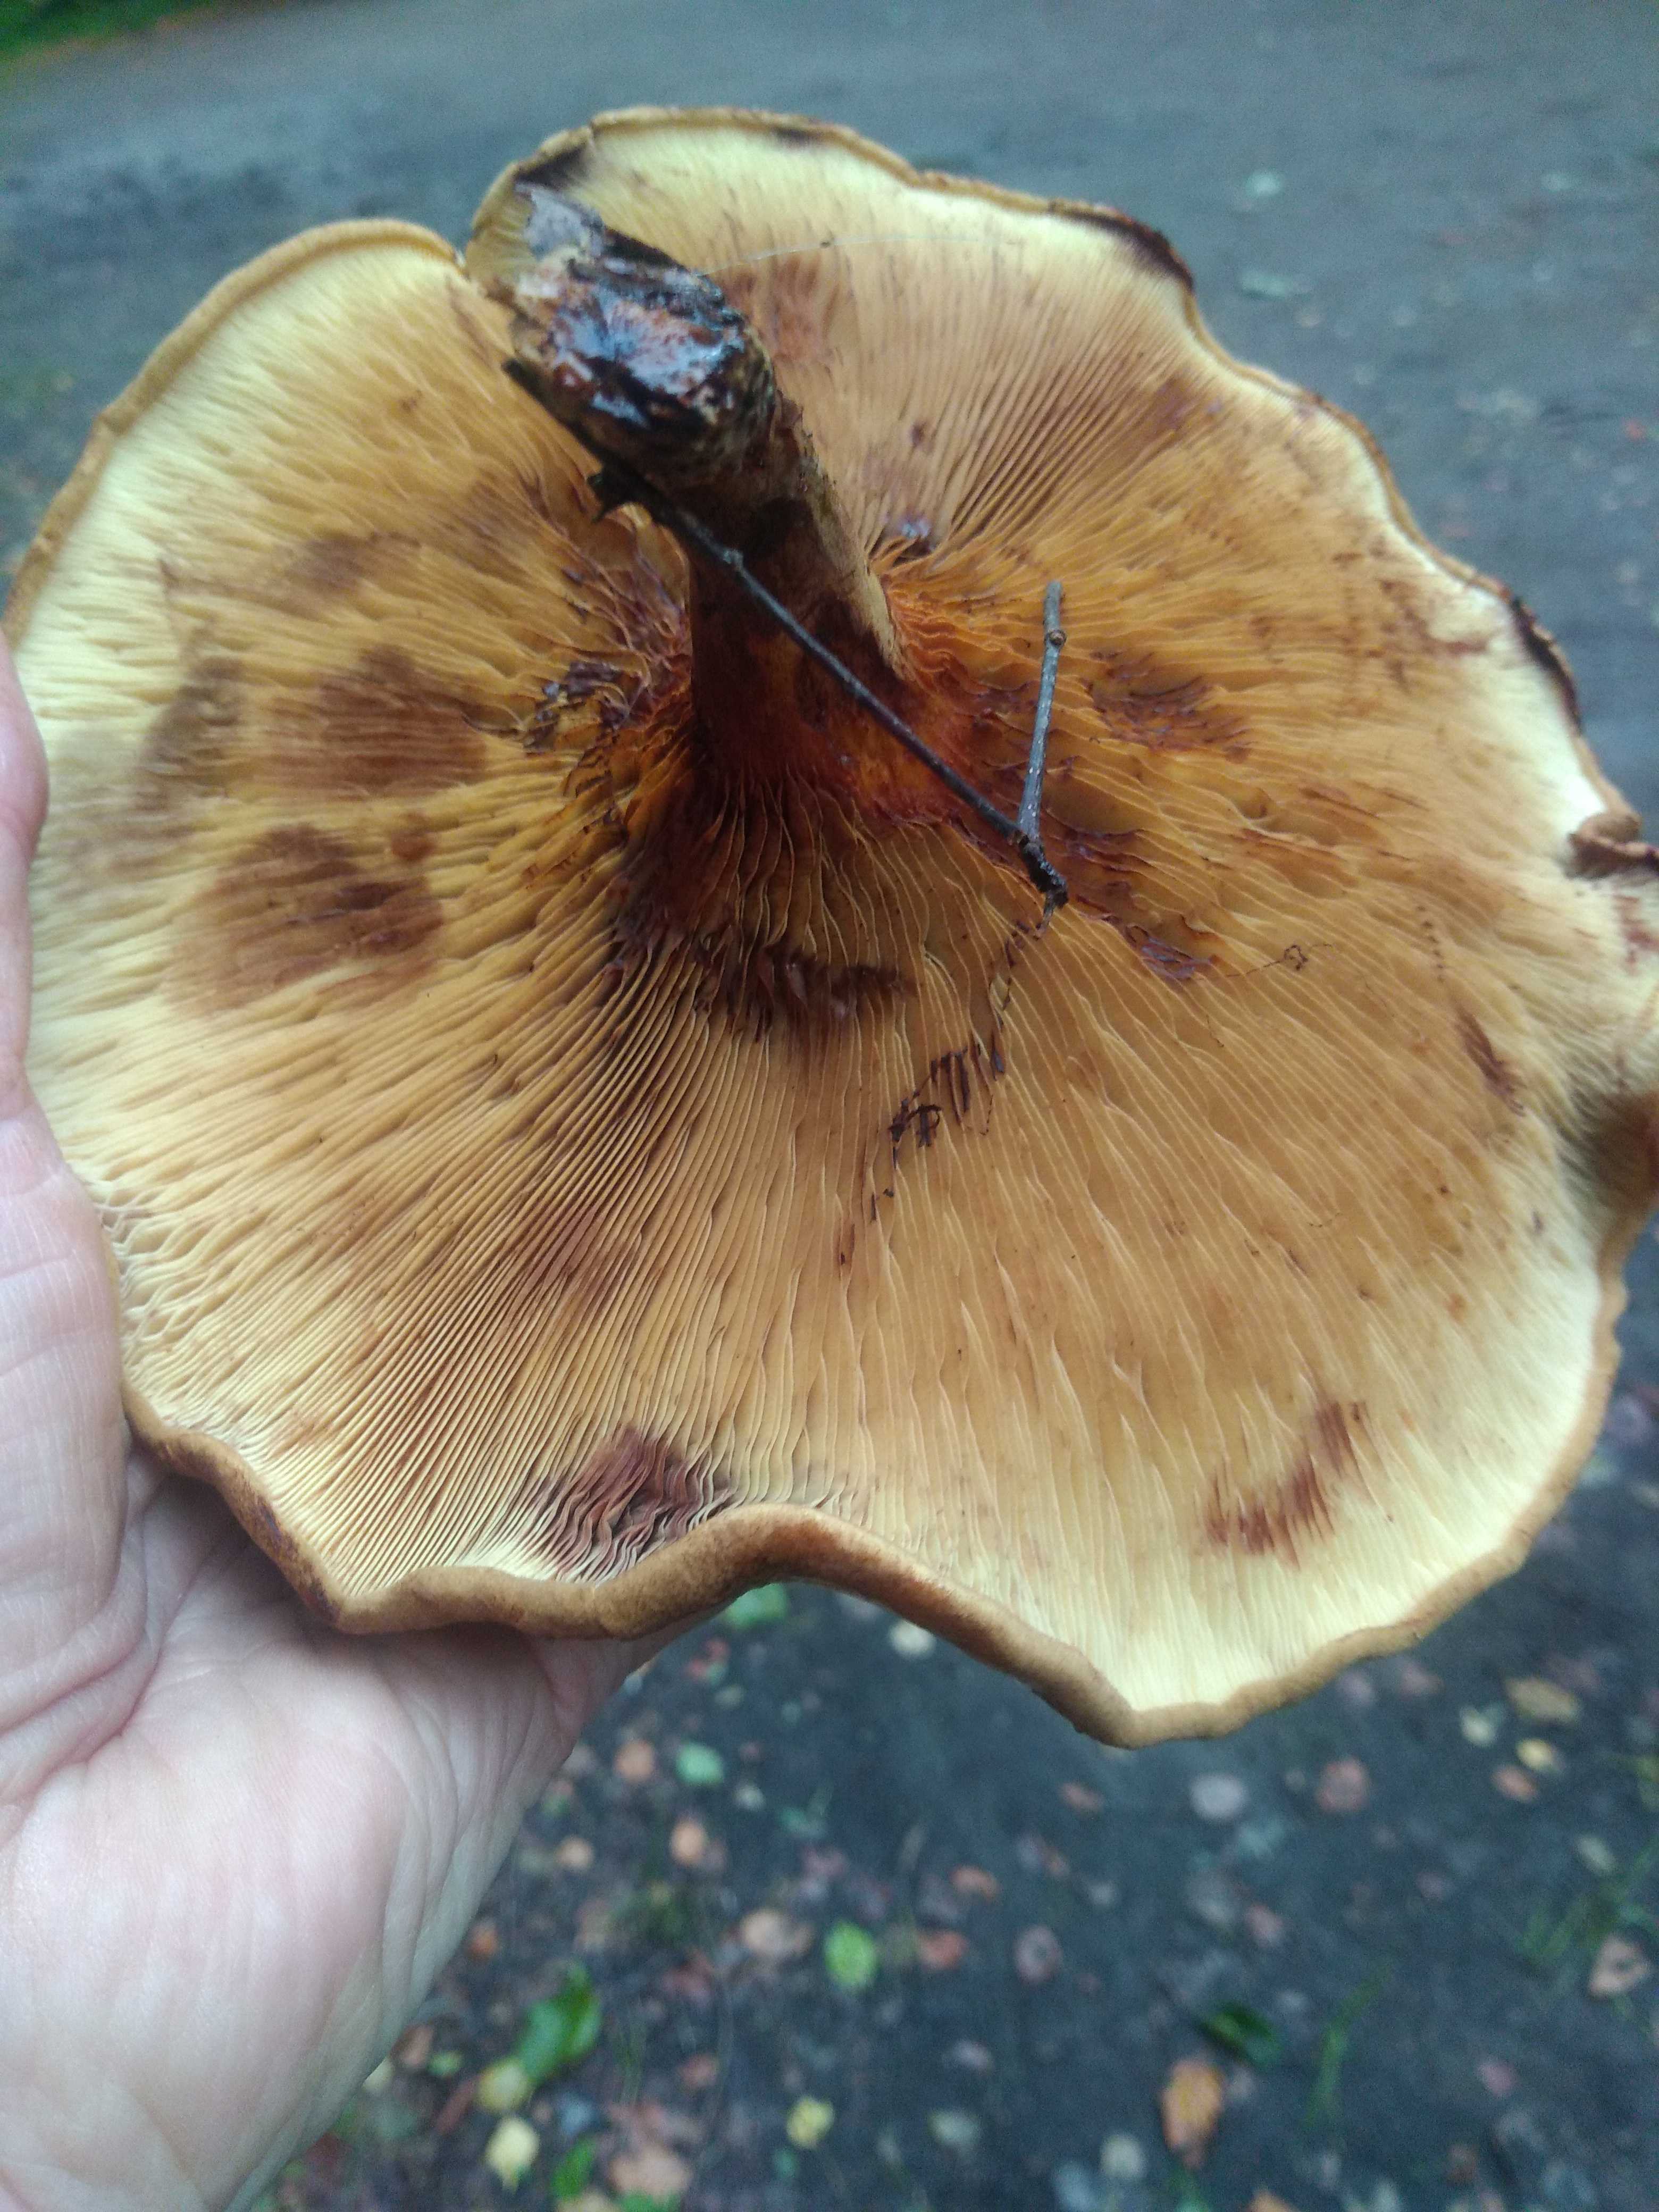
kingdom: Fungi
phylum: Basidiomycota
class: Agaricomycetes
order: Boletales
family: Paxillaceae
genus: Paxillus
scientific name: Paxillus
